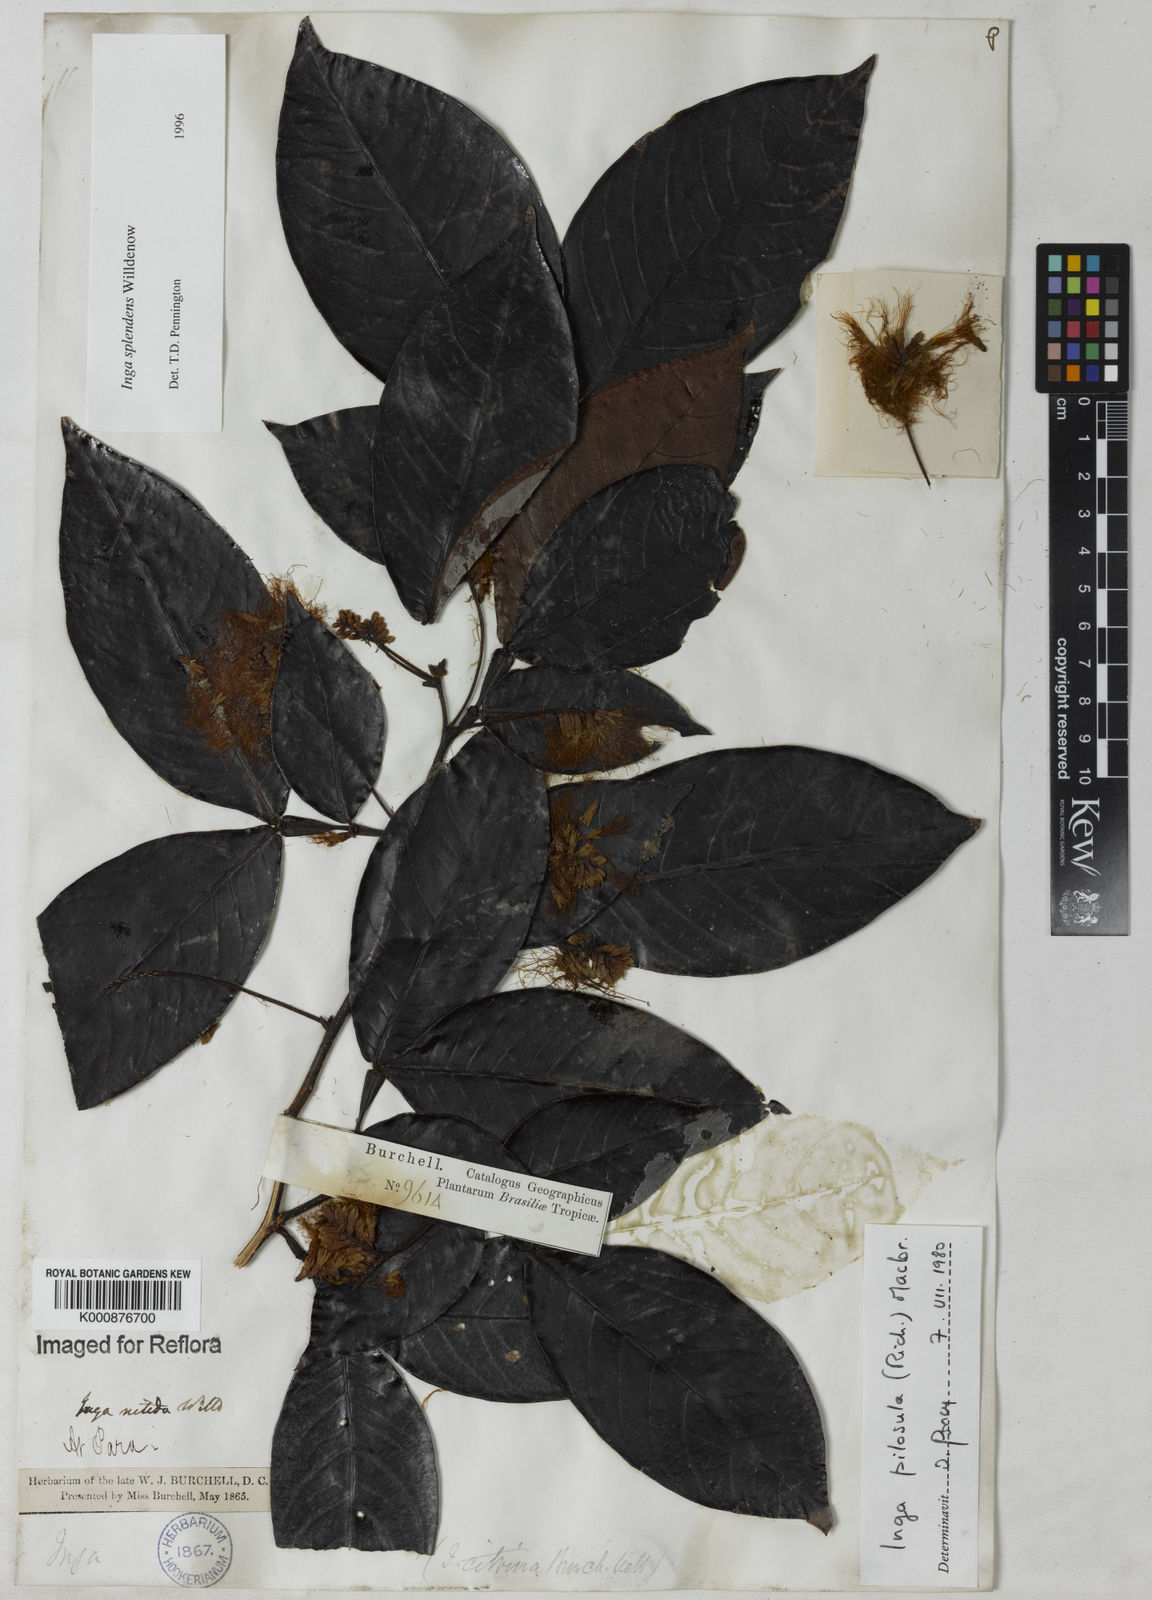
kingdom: Plantae
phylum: Tracheophyta
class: Magnoliopsida
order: Fabales
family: Fabaceae
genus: Inga
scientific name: Inga splendens
